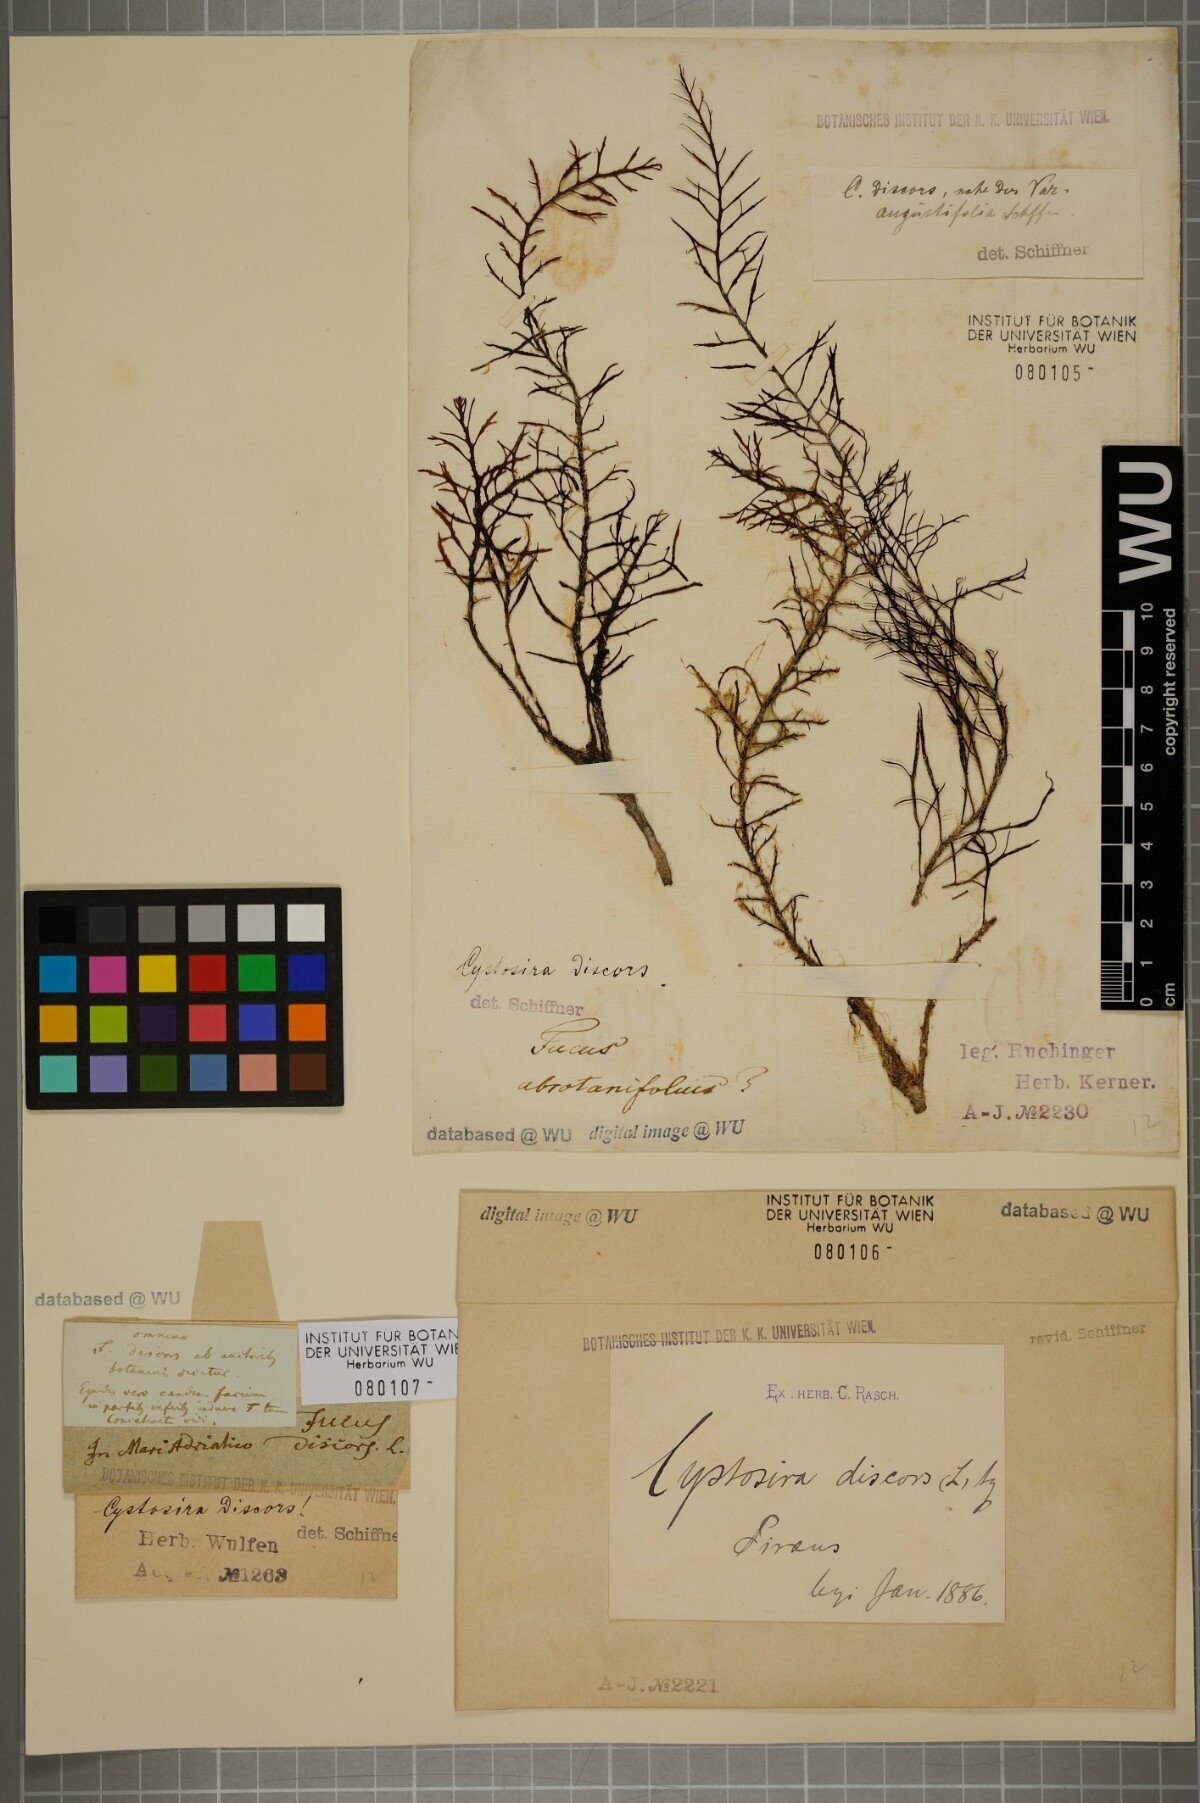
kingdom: Chromista
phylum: Ochrophyta
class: Phaeophyceae
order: Fucales
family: Sargassaceae
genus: Cystoseira
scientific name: Cystoseira foeniculacea
